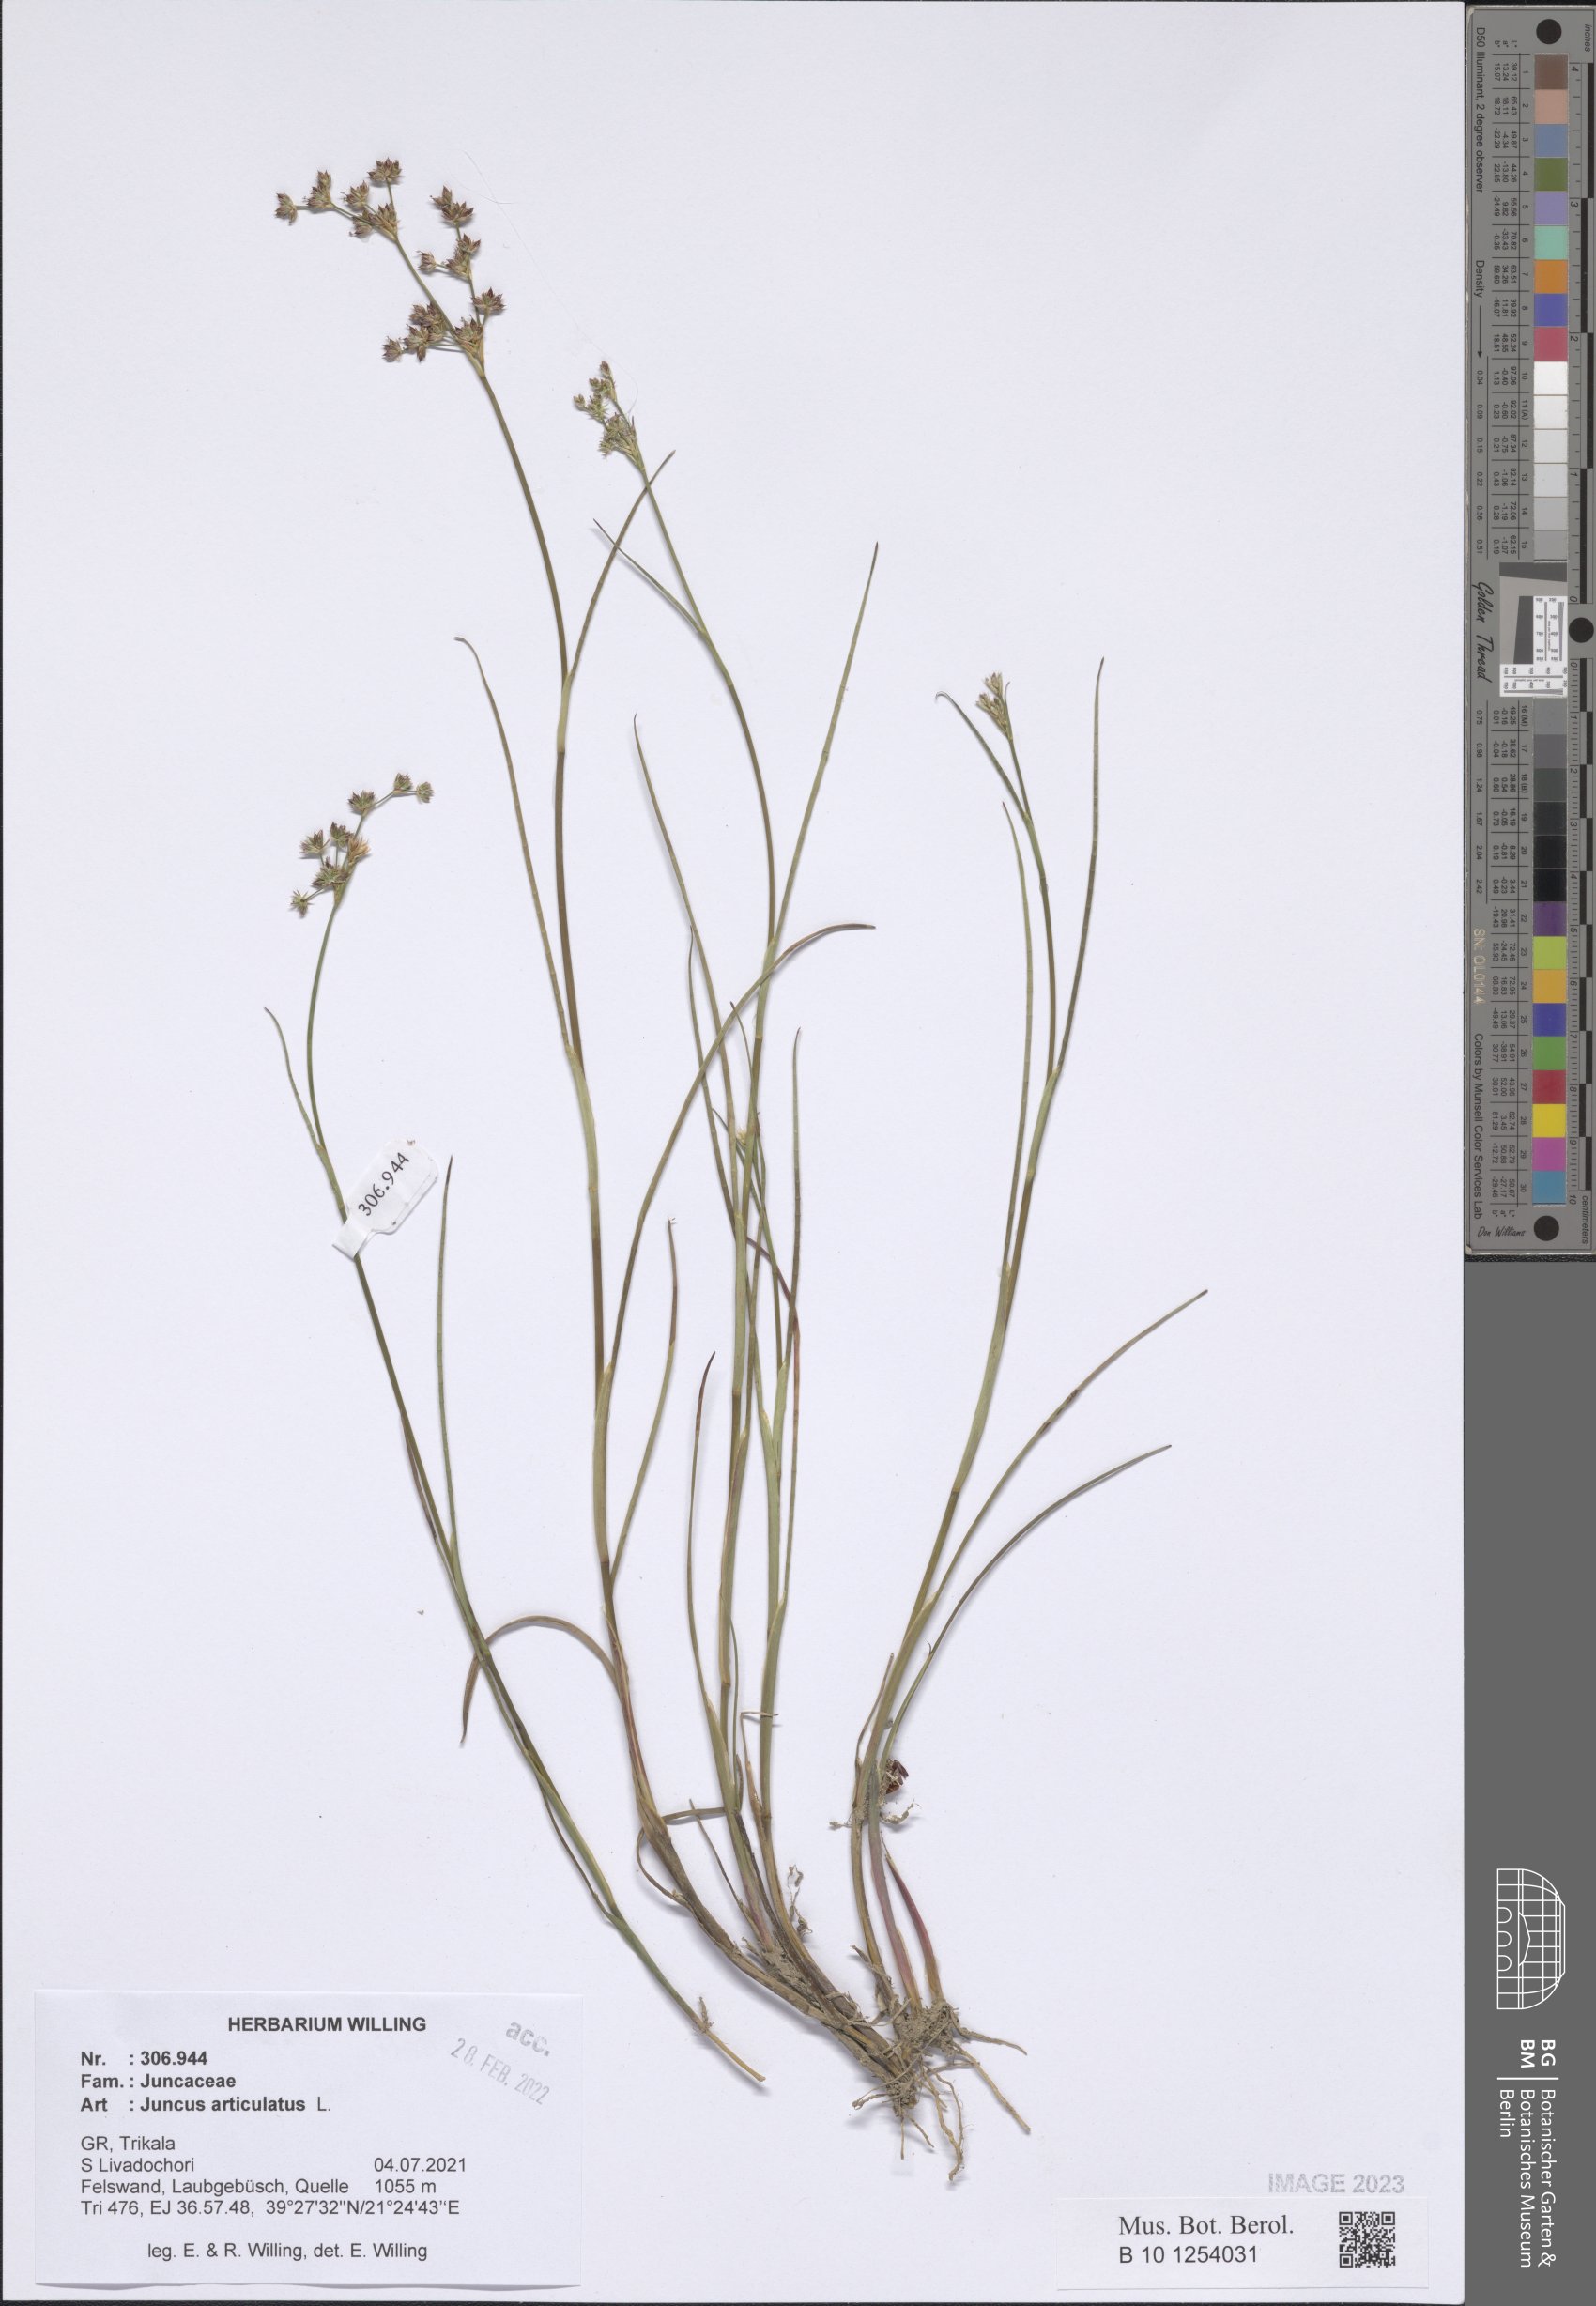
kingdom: Plantae
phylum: Tracheophyta
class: Liliopsida
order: Poales
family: Juncaceae
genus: Juncus
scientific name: Juncus articulatus
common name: Jointed rush
